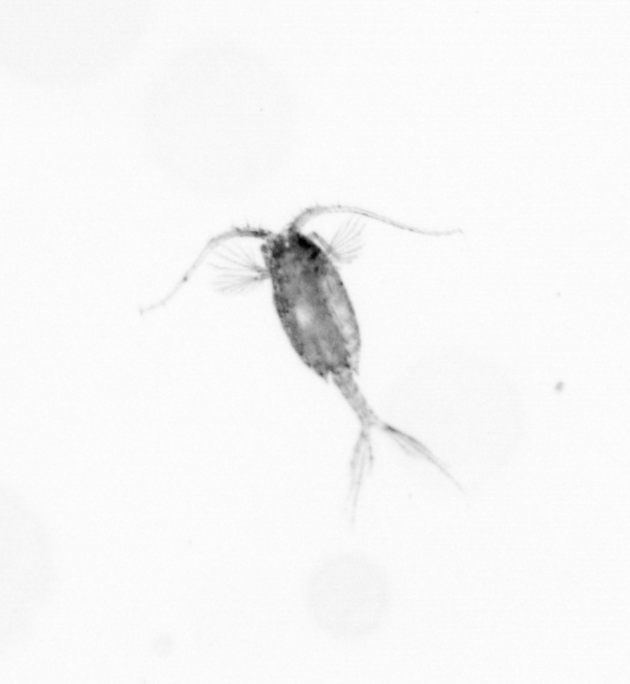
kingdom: Animalia
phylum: Arthropoda
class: Copepoda
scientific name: Copepoda
